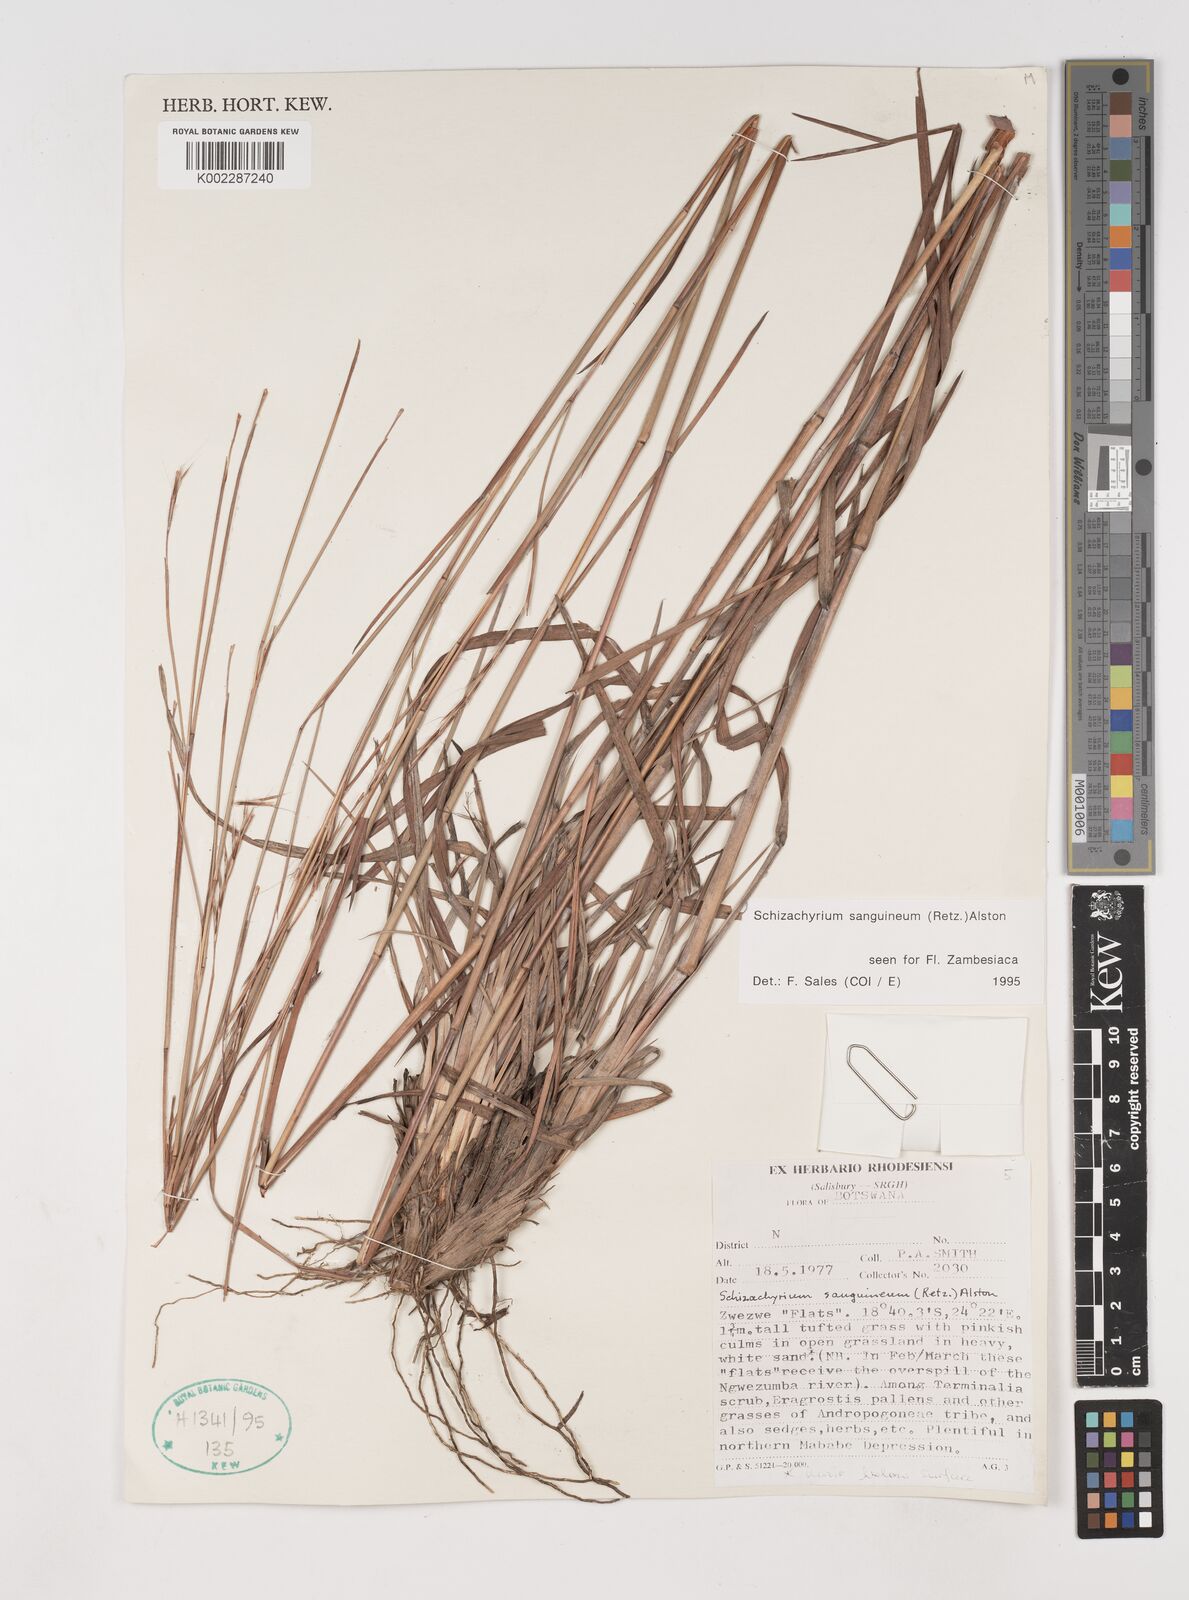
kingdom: Plantae
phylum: Tracheophyta
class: Liliopsida
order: Poales
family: Poaceae
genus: Schizachyrium
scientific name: Schizachyrium sanguineum
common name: Crimson bluestem
